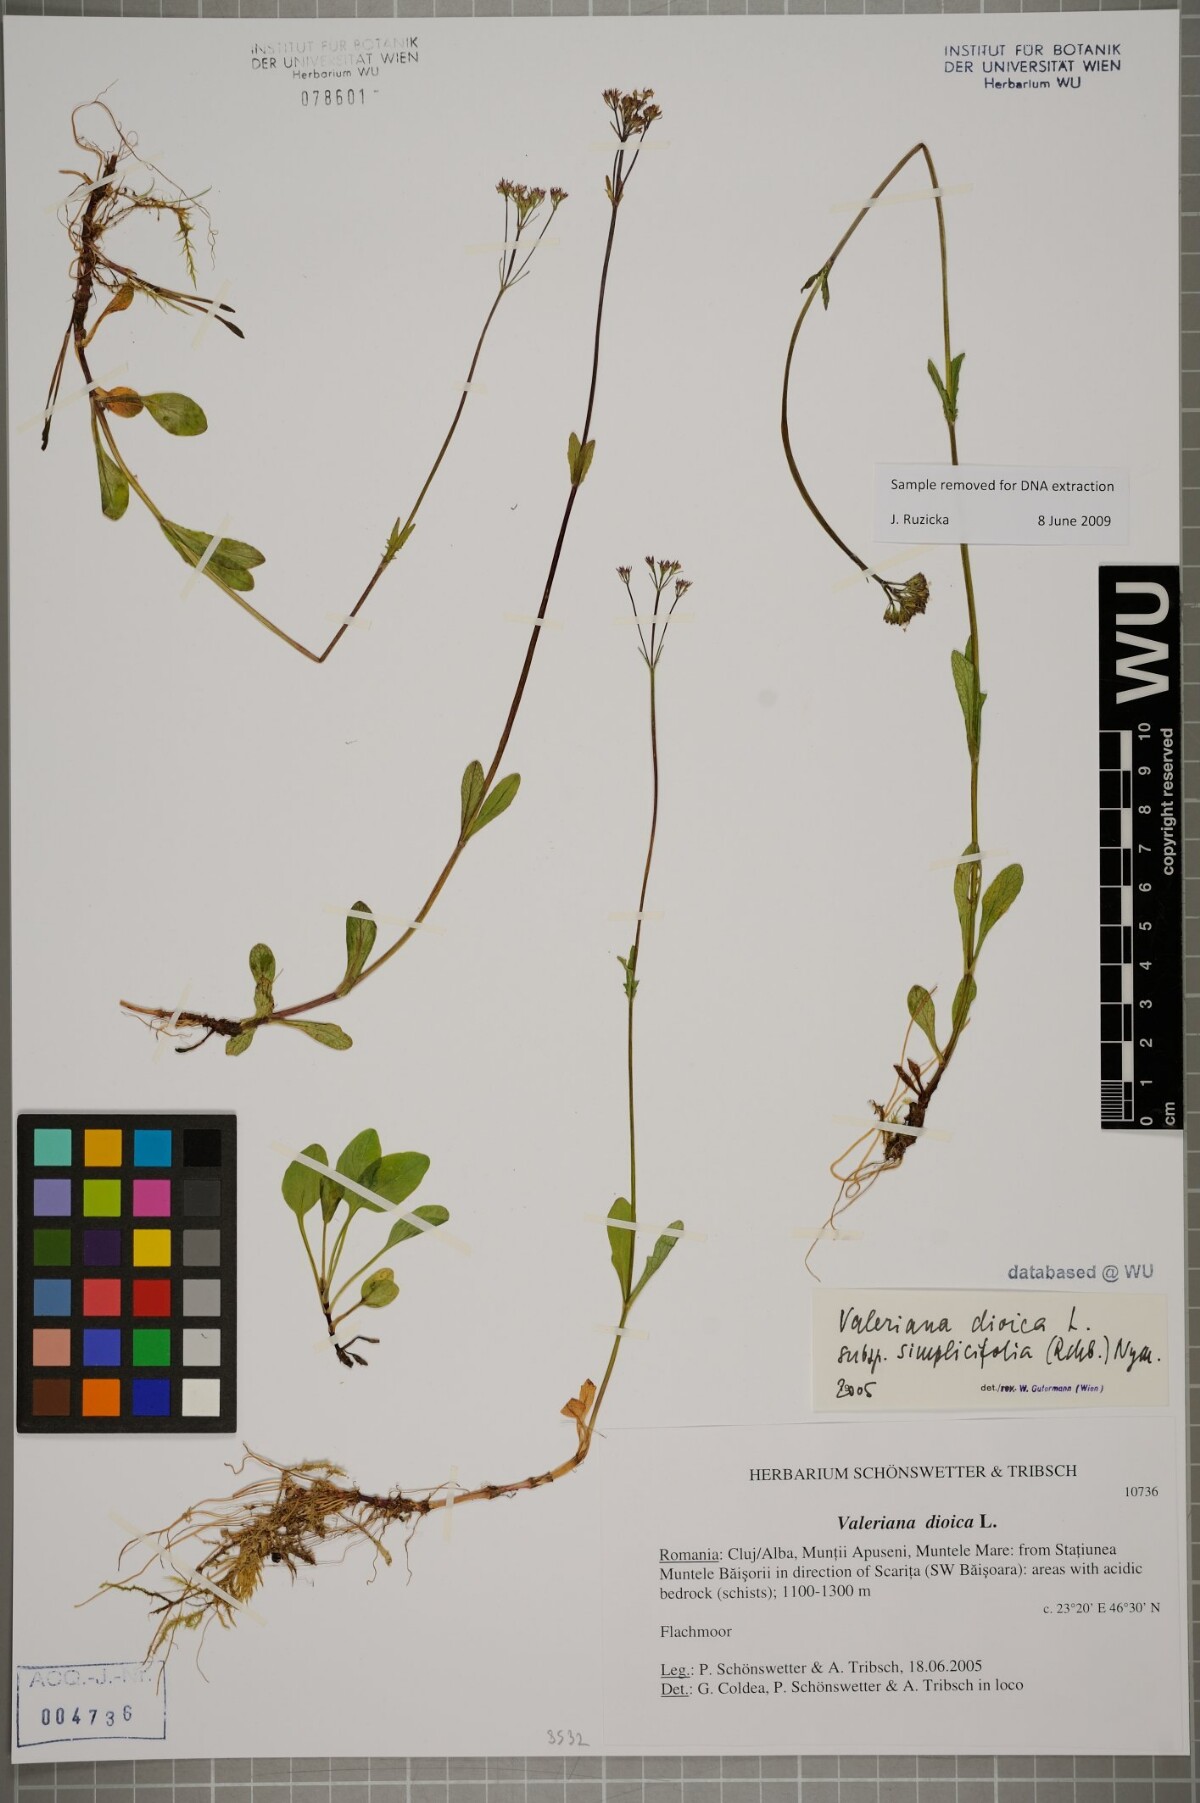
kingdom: Plantae
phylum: Tracheophyta
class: Magnoliopsida
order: Dipsacales
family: Caprifoliaceae
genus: Valeriana
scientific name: Valeriana dioica
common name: Marsh valerian
